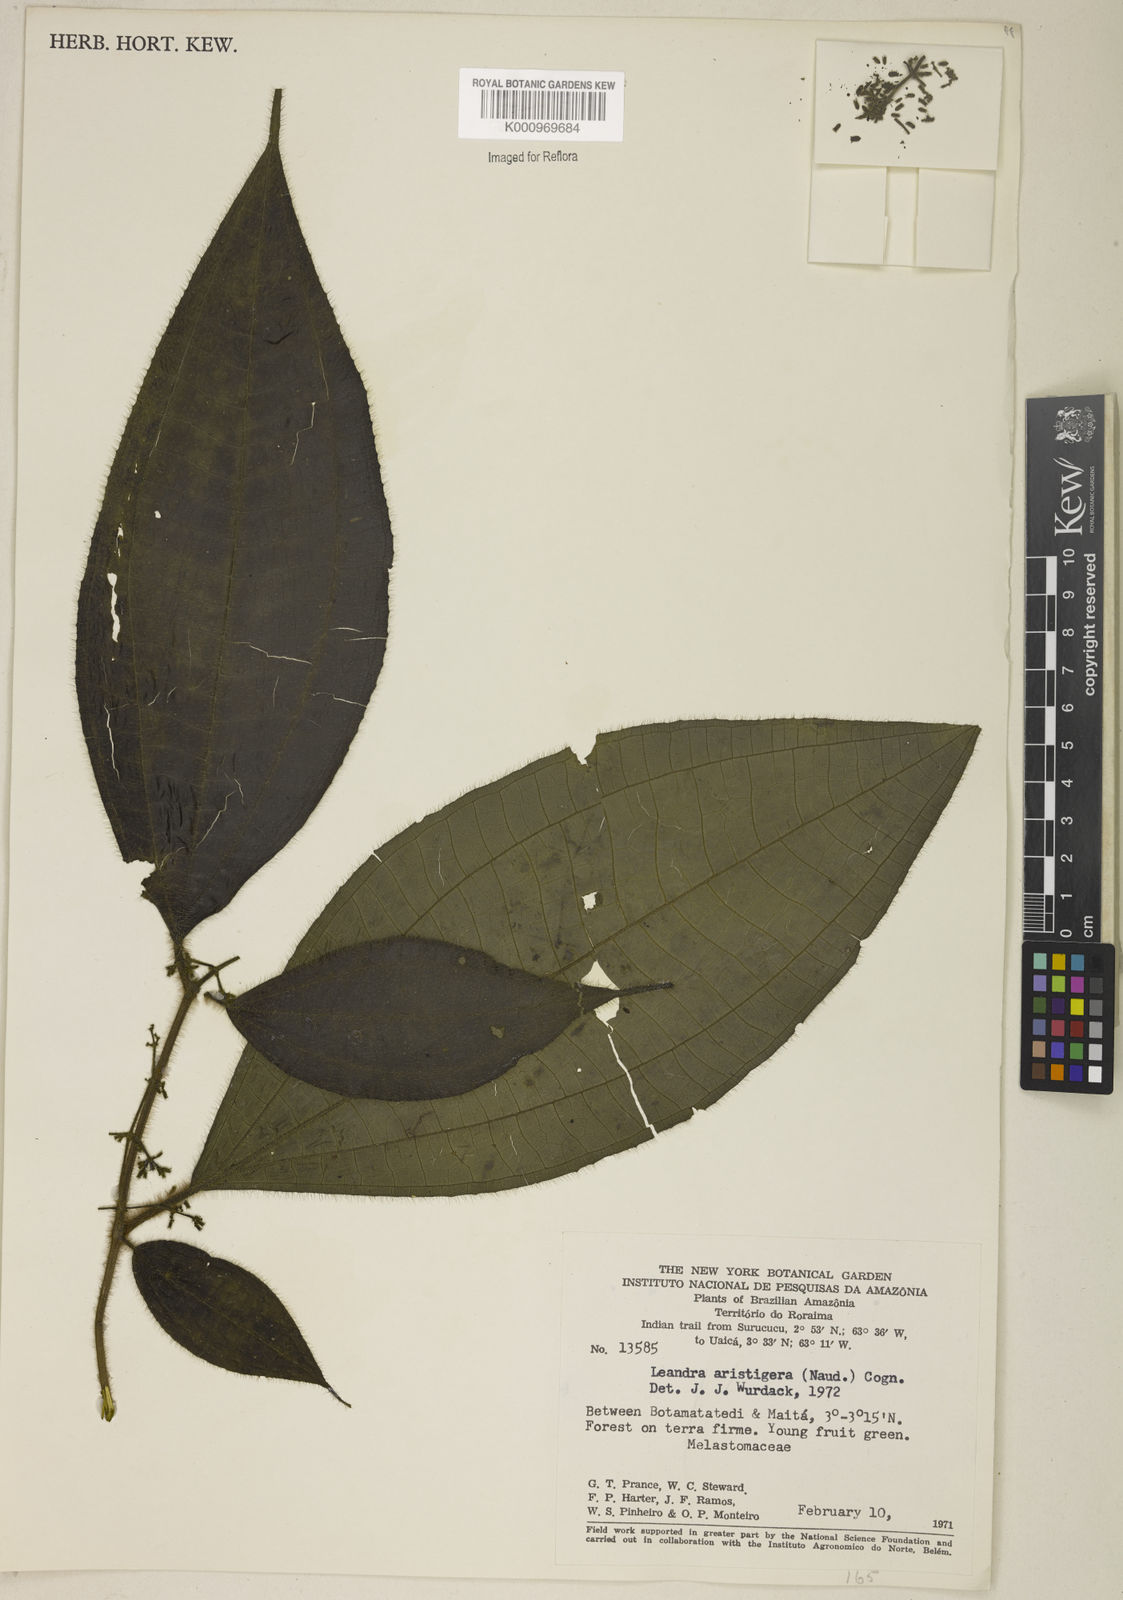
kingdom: Plantae
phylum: Tracheophyta
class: Magnoliopsida
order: Myrtales
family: Melastomataceae
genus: Miconia
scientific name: Miconia aristigera
